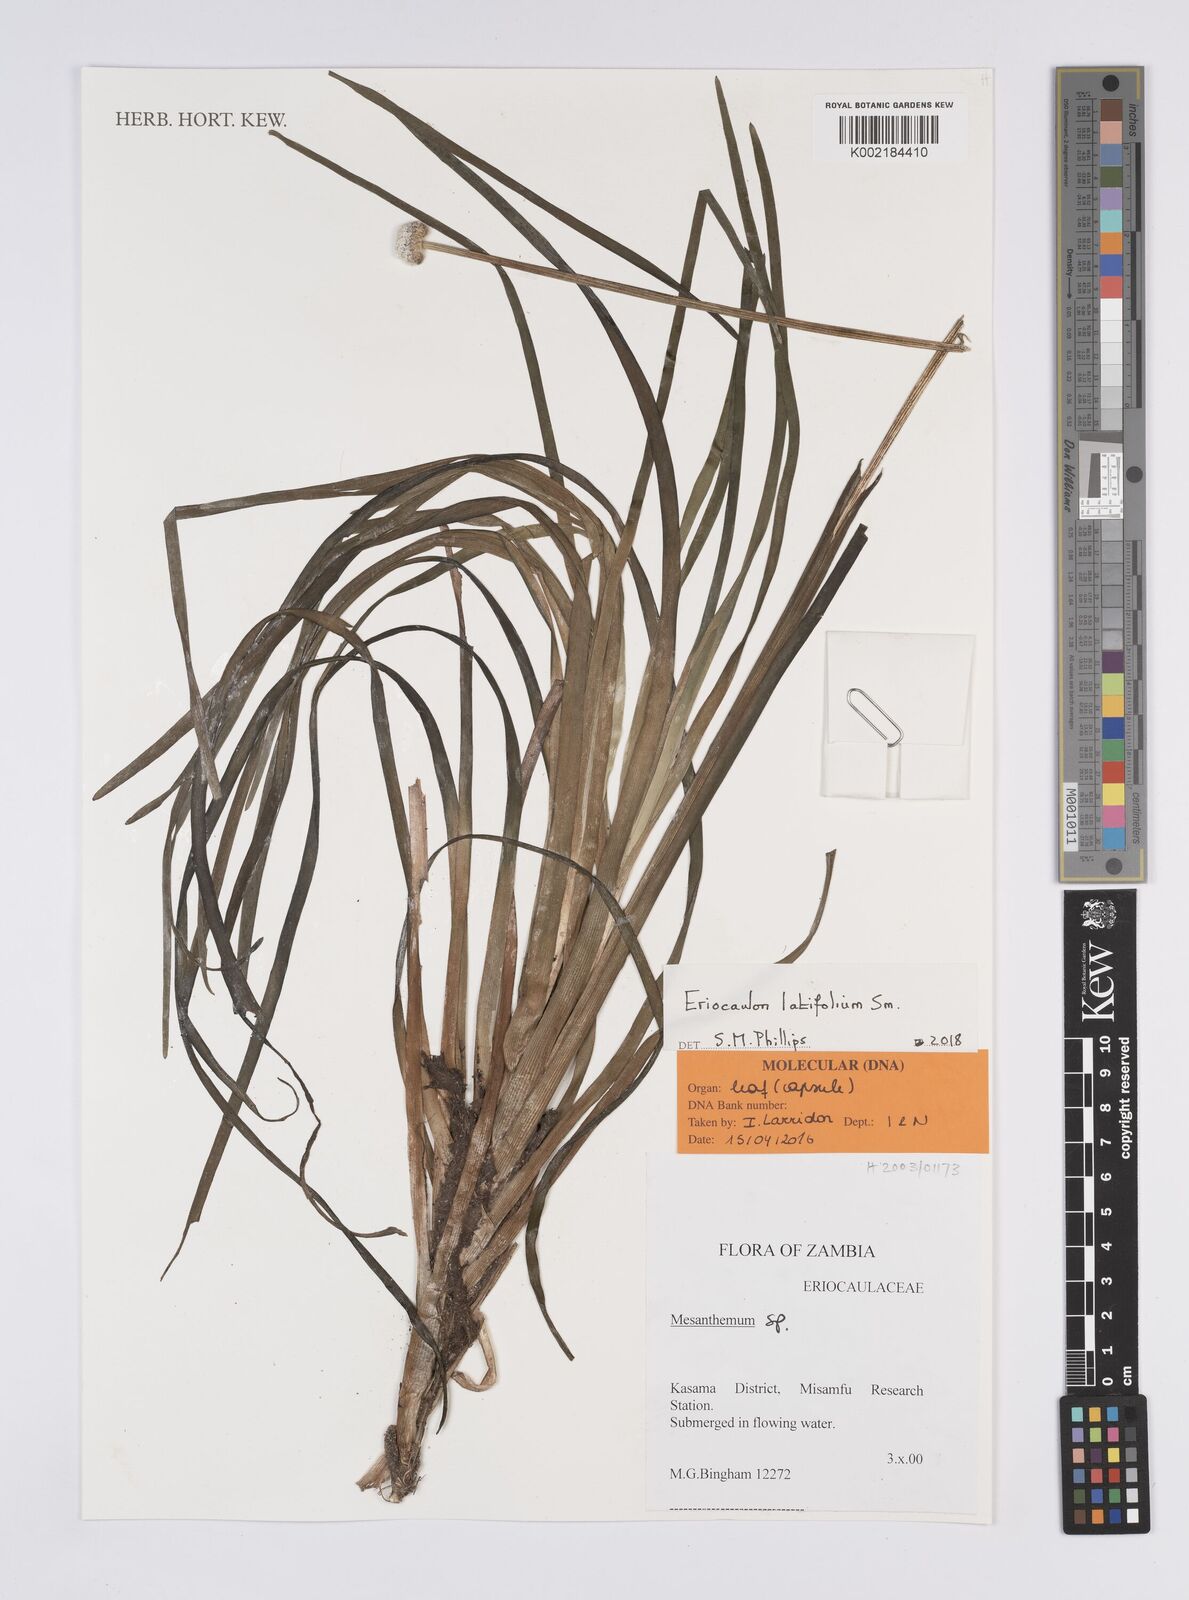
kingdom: Plantae
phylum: Tracheophyta
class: Liliopsida
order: Poales
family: Eriocaulaceae
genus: Eriocaulon
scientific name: Eriocaulon latifolium
